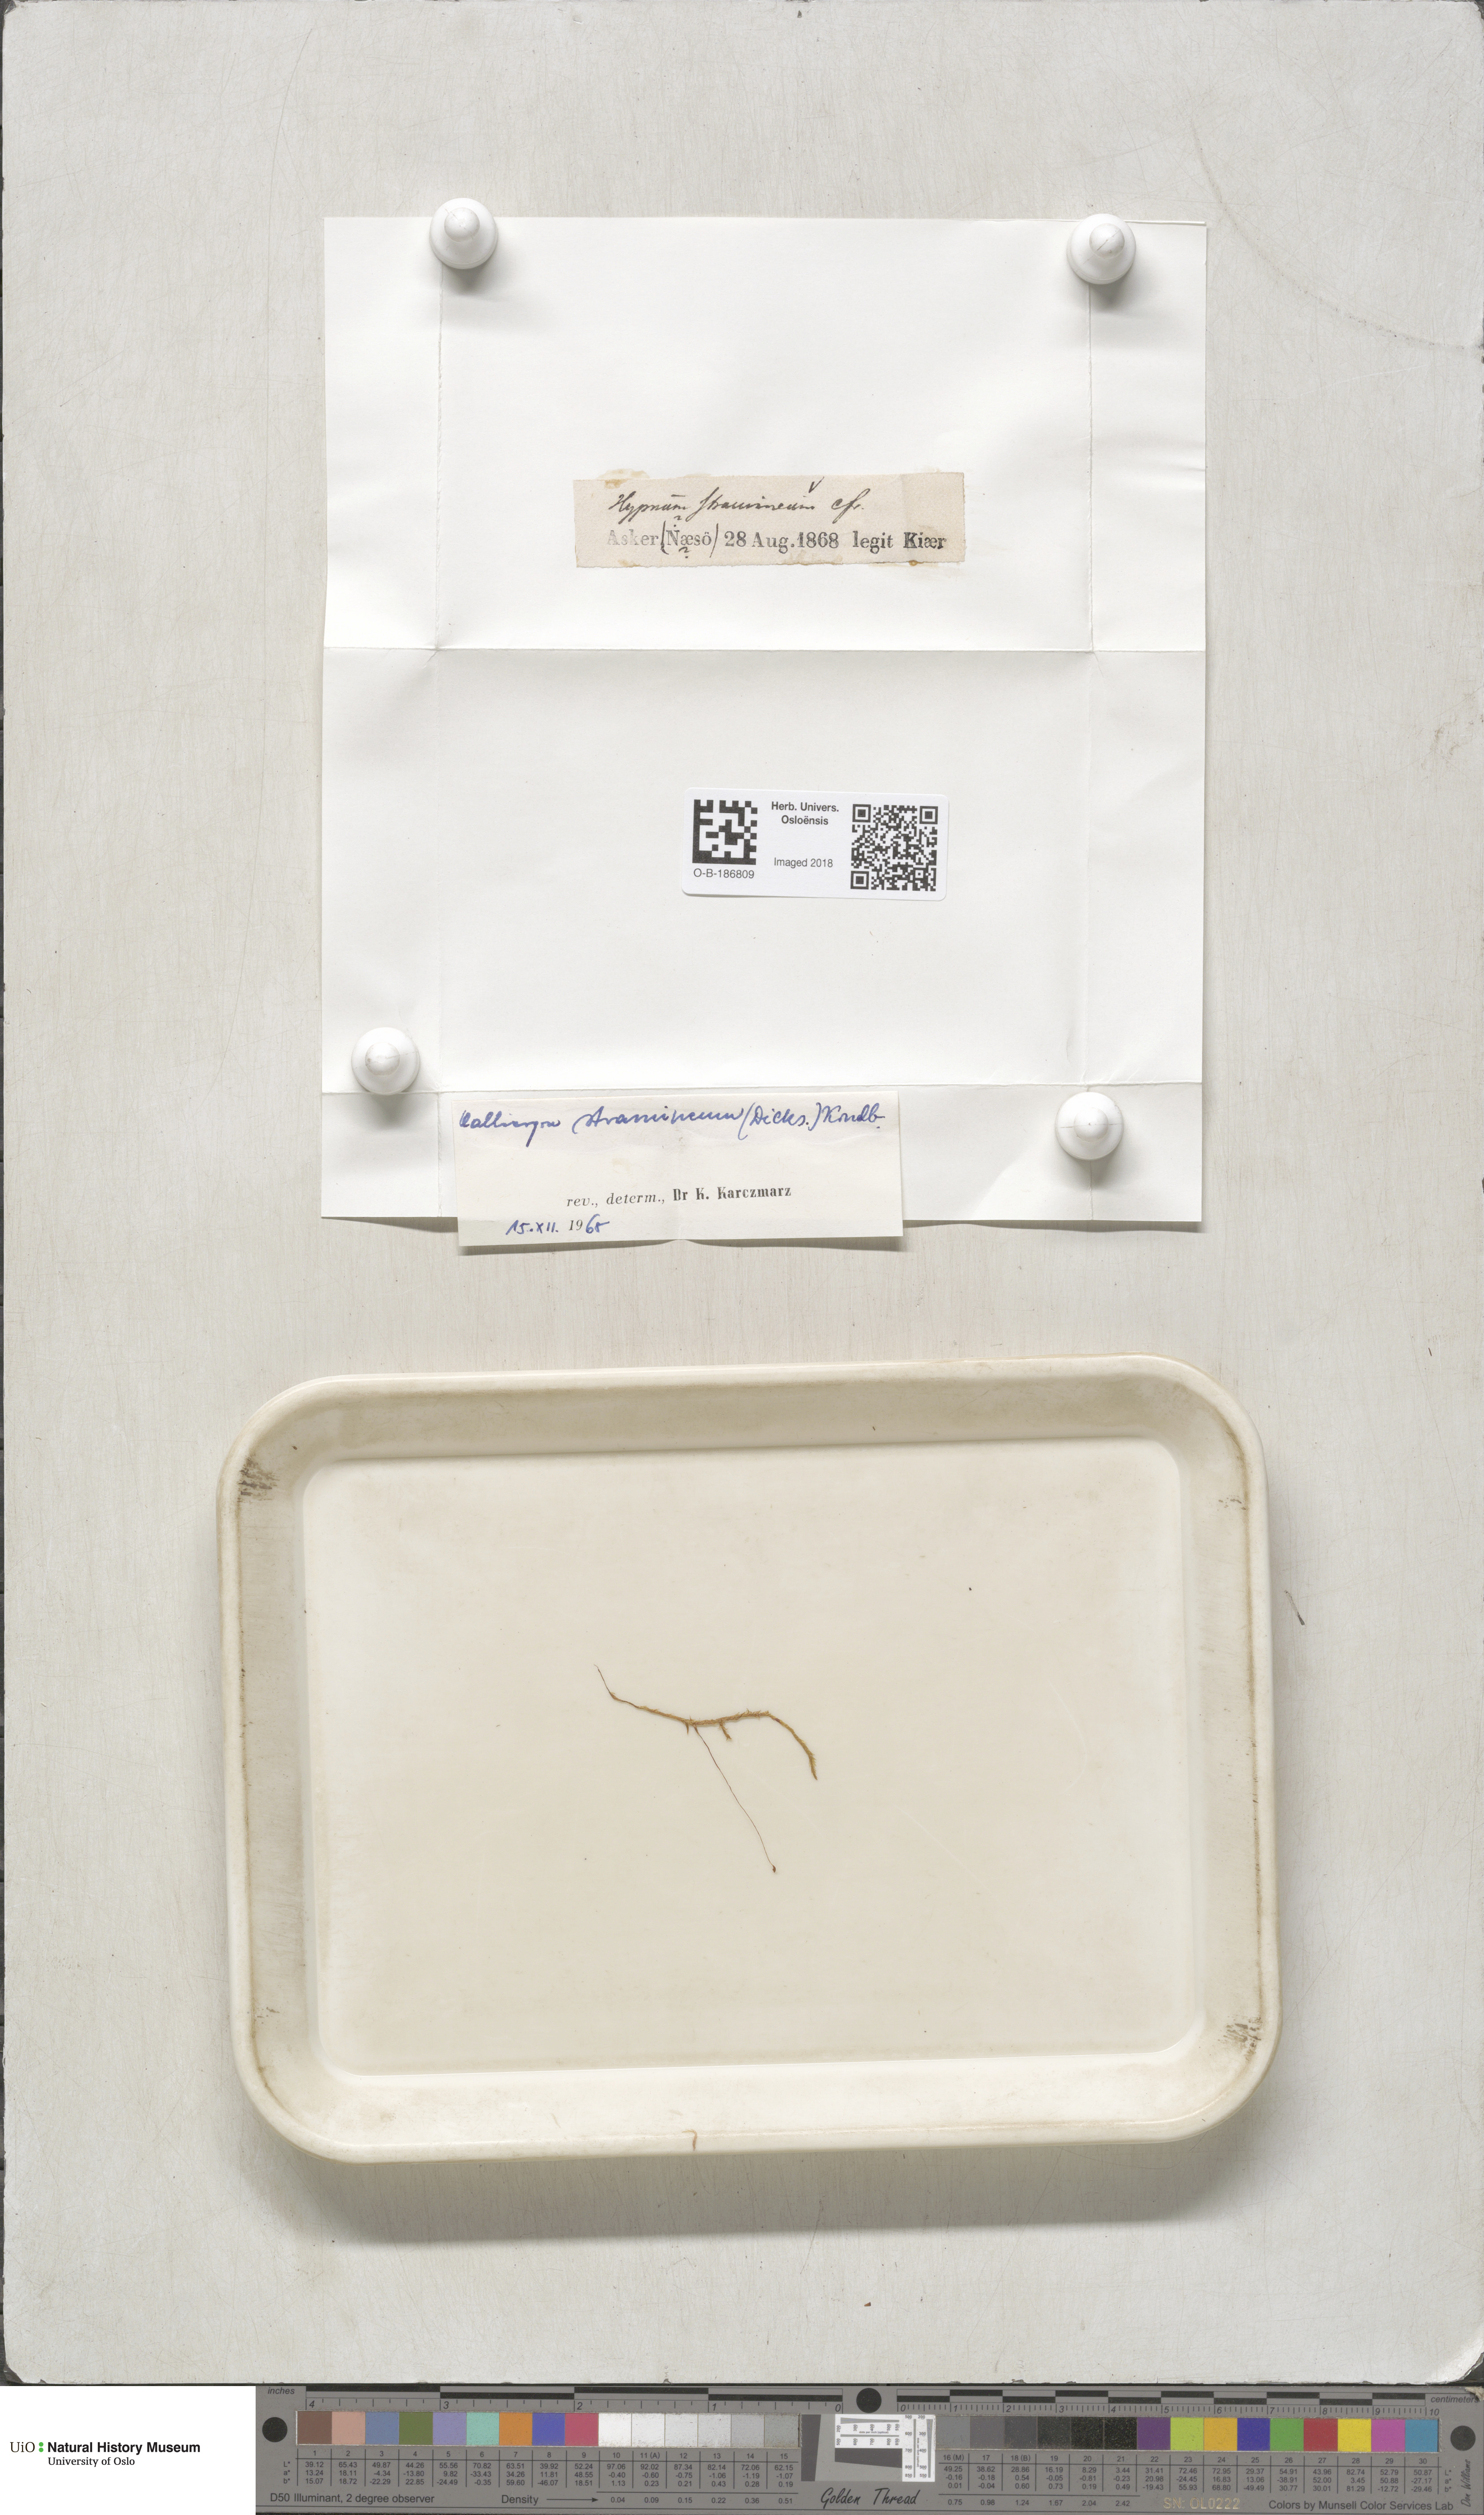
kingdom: Plantae
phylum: Bryophyta
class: Bryopsida
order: Hypnales
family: Calliergonaceae
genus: Straminergon
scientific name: Straminergon stramineum
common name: Straw moss
